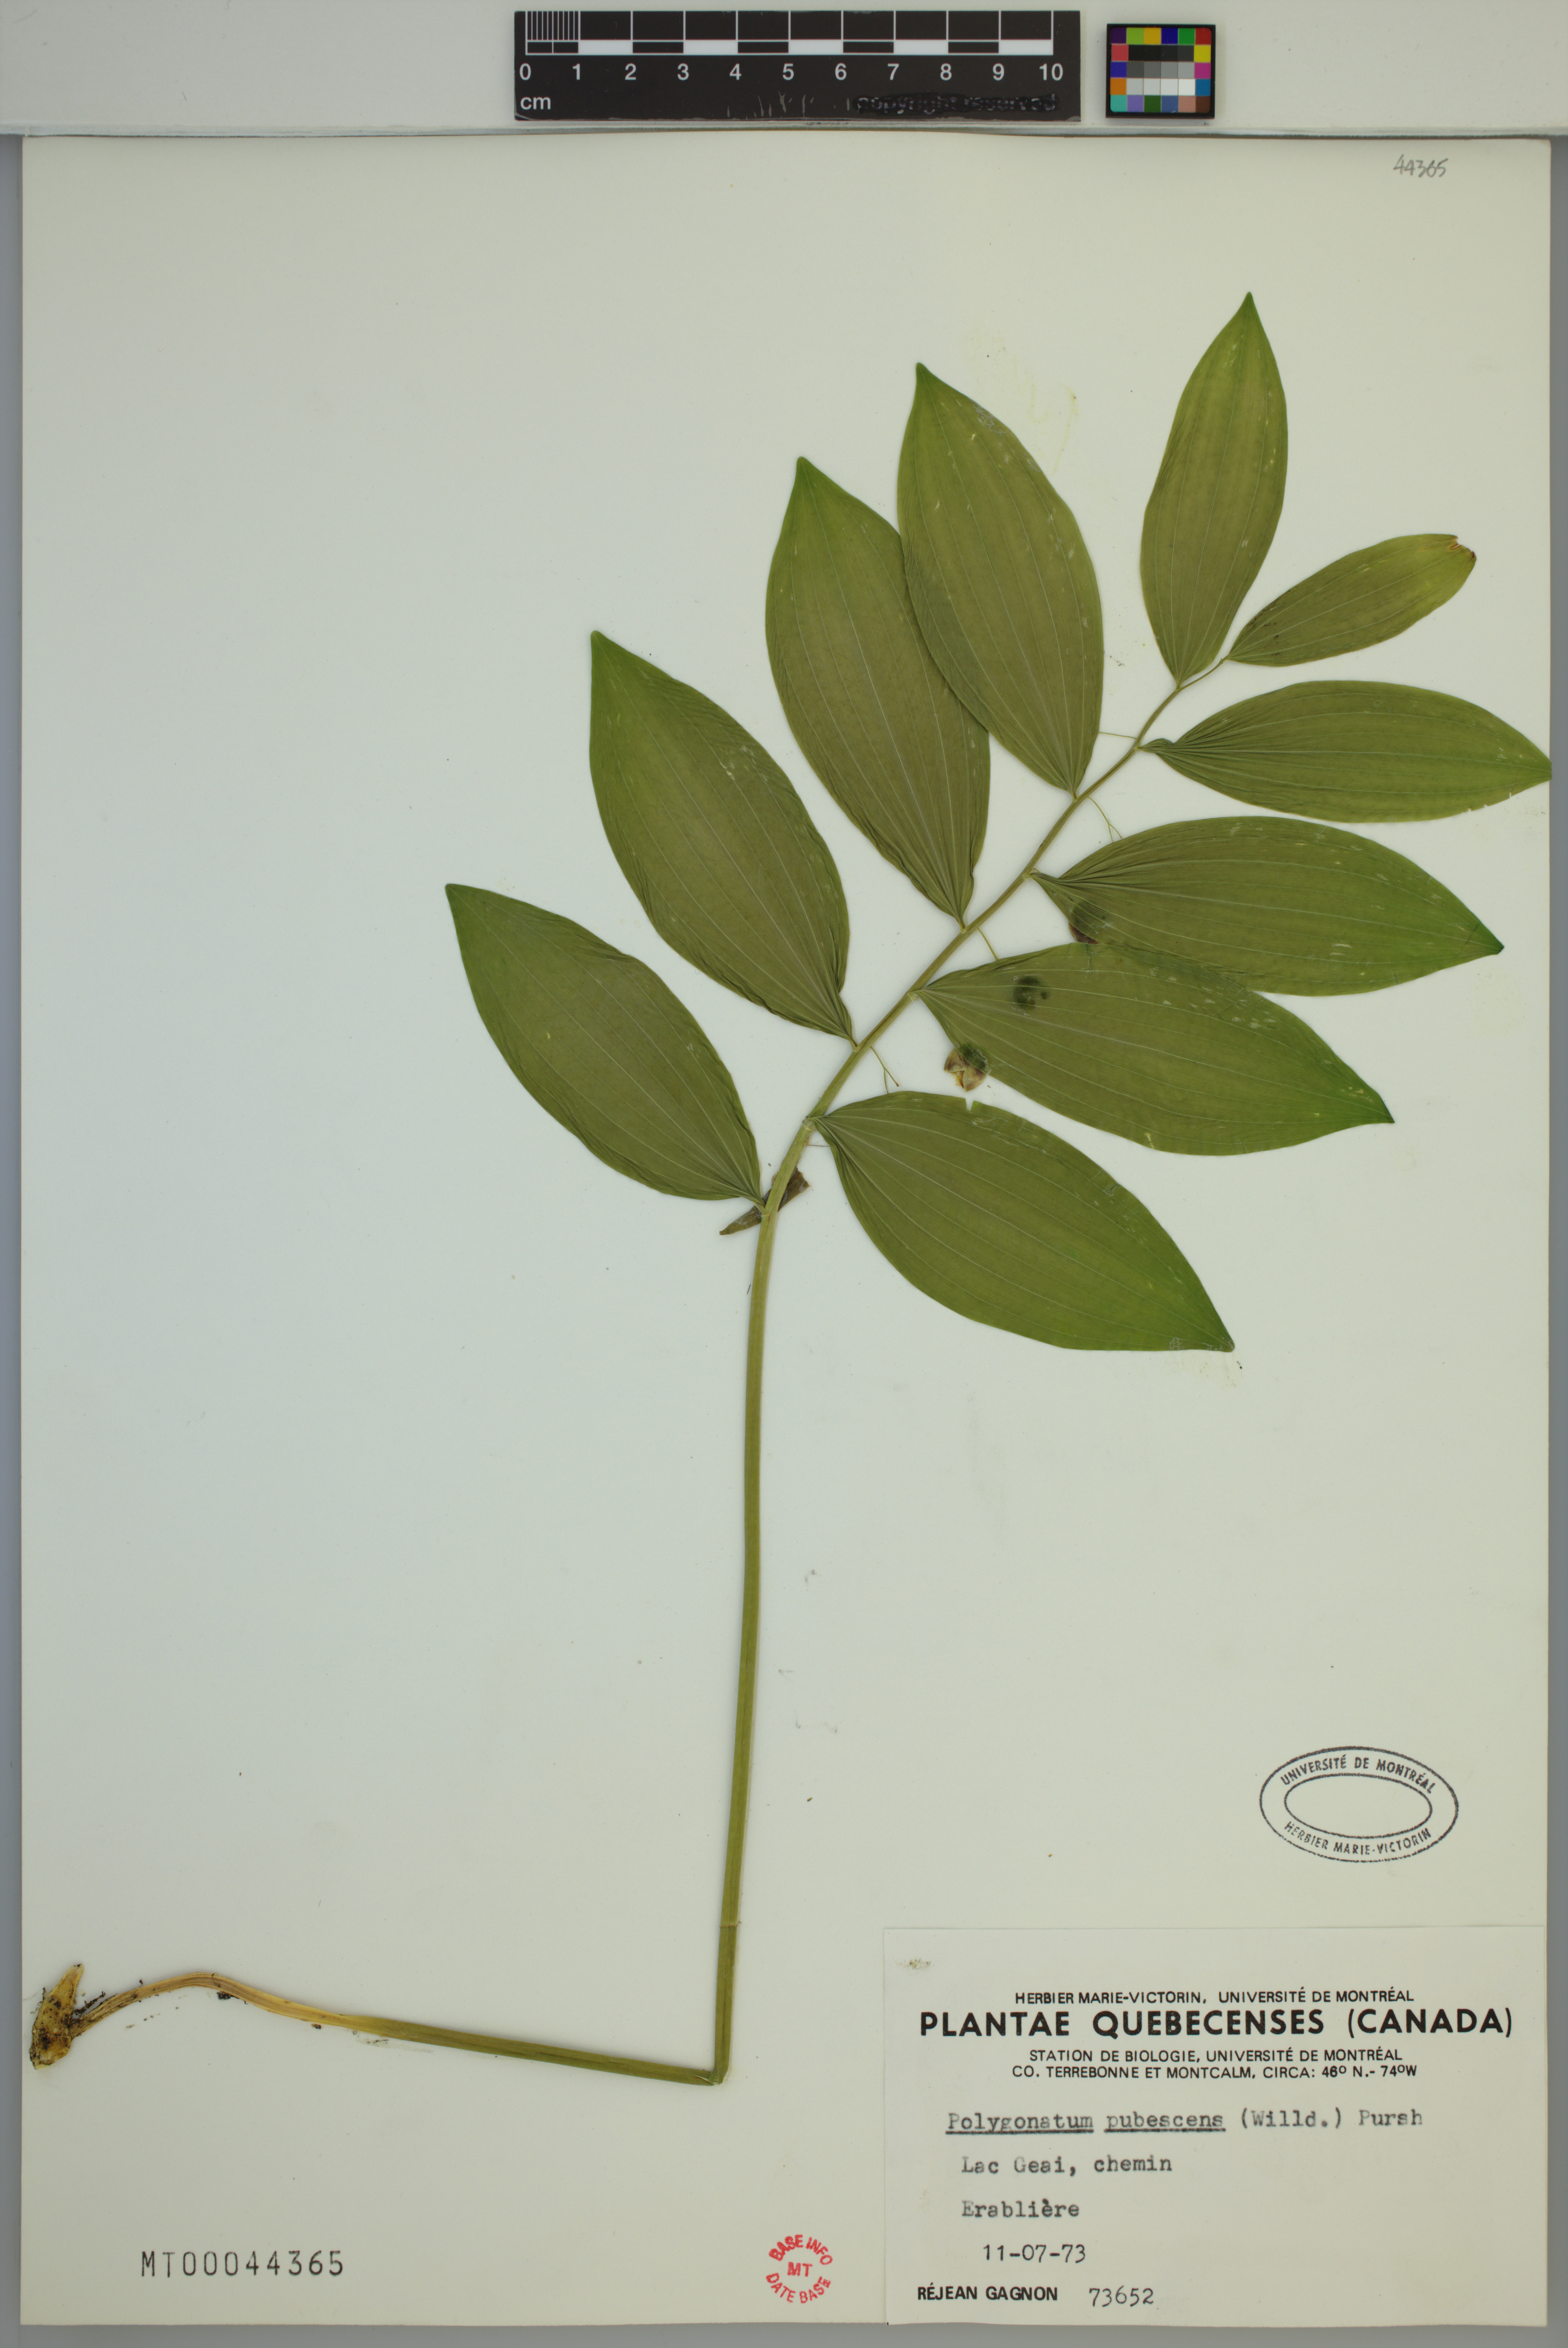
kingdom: Plantae
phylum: Tracheophyta
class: Liliopsida
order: Asparagales
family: Asparagaceae
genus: Polygonatum
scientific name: Polygonatum pubescens
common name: Downy solomon's seal
